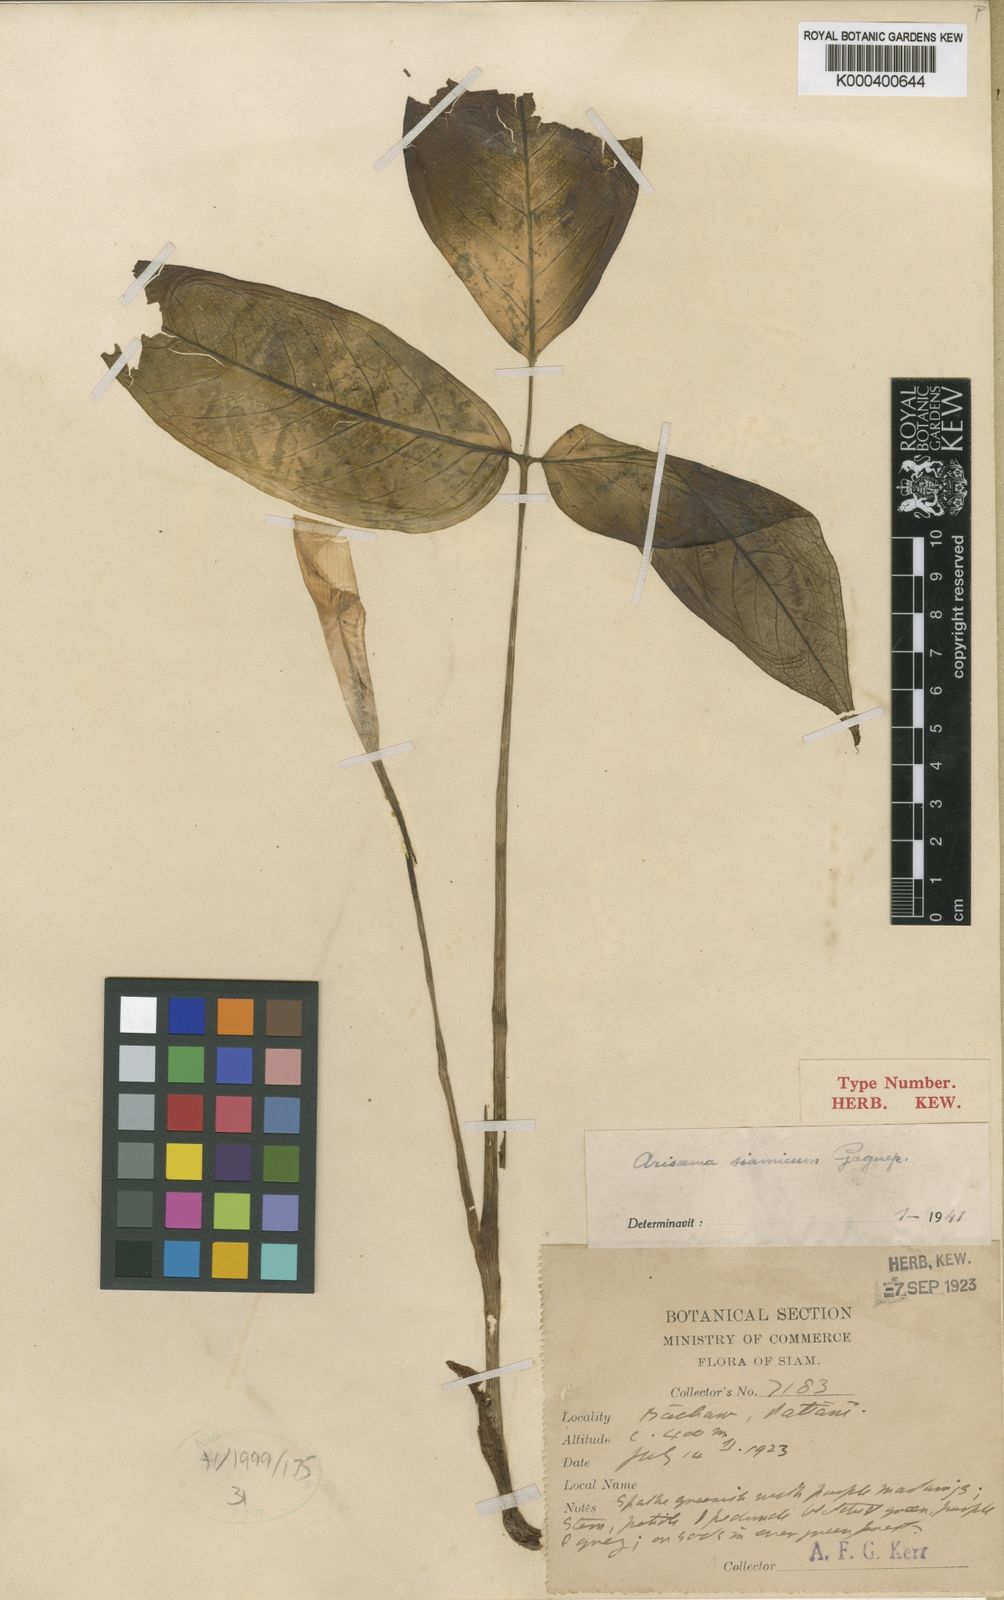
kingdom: Plantae
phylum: Tracheophyta
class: Liliopsida
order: Alismatales
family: Araceae
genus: Arisaema
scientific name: Arisaema siamicum
